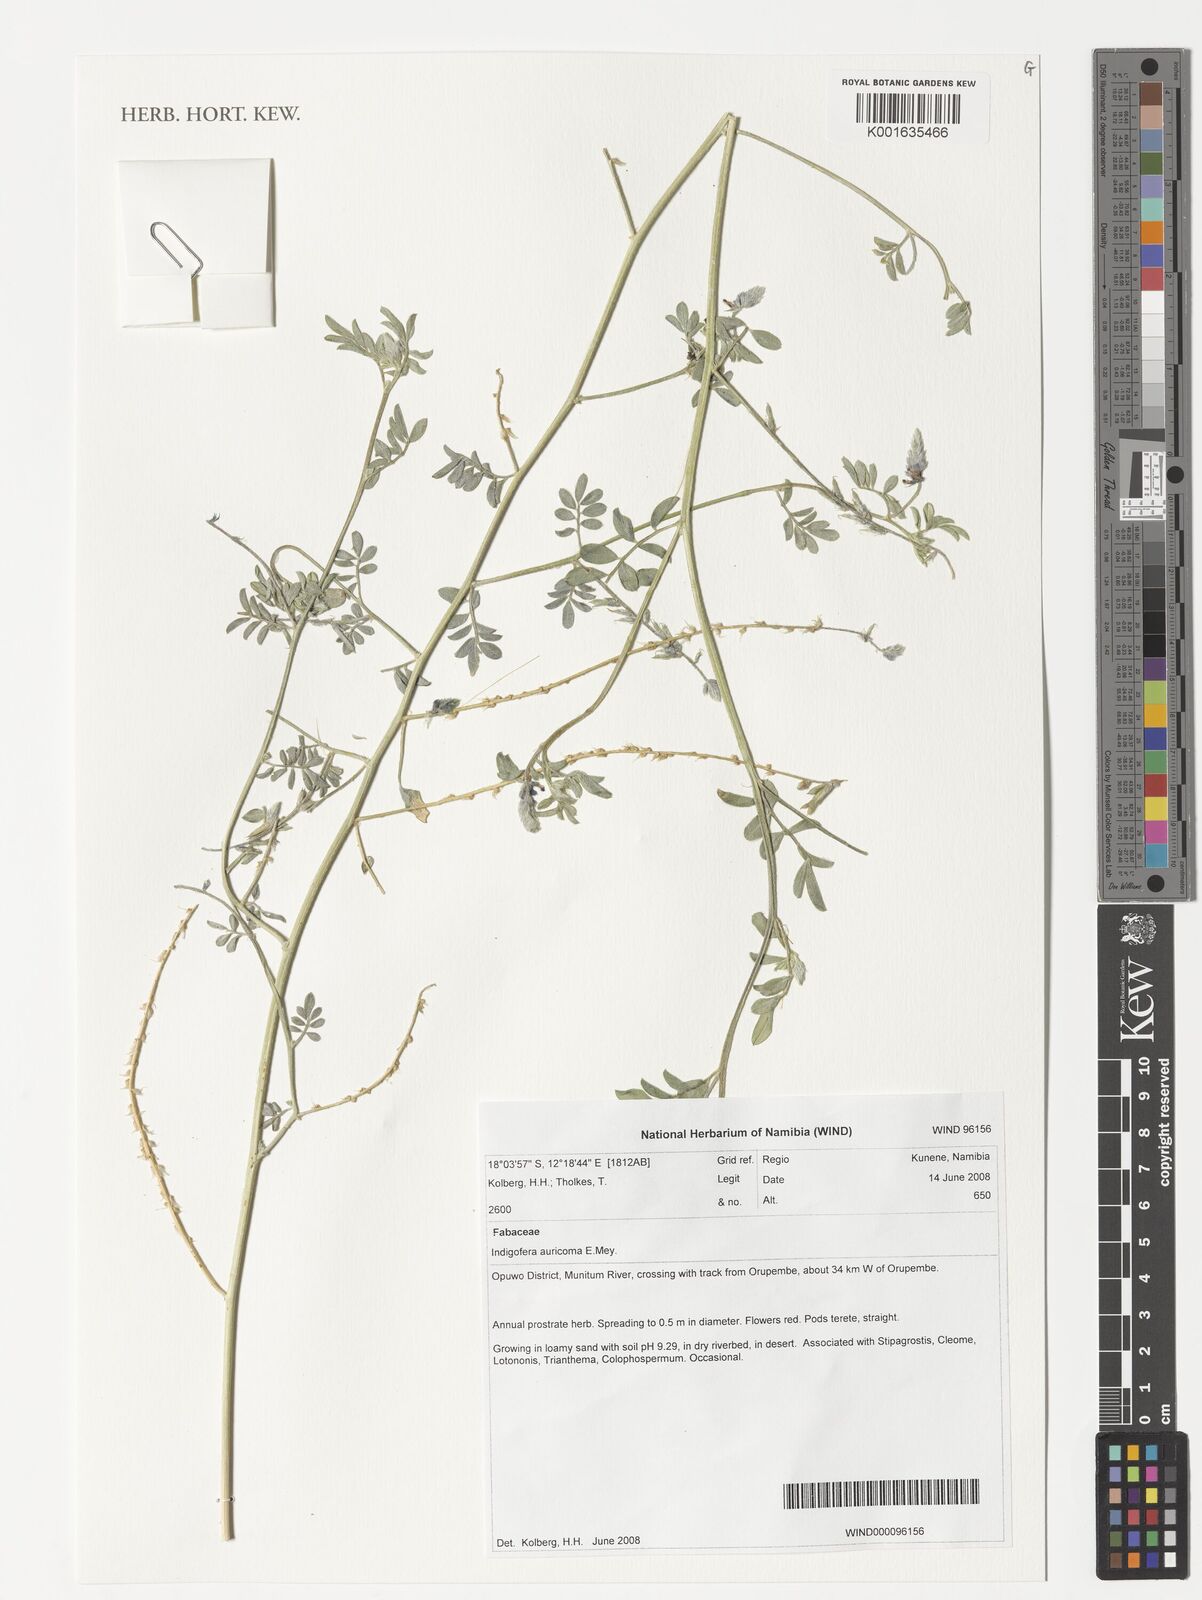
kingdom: Plantae
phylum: Tracheophyta
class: Magnoliopsida
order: Fabales
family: Fabaceae
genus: Indigofera
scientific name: Indigofera auricoma
